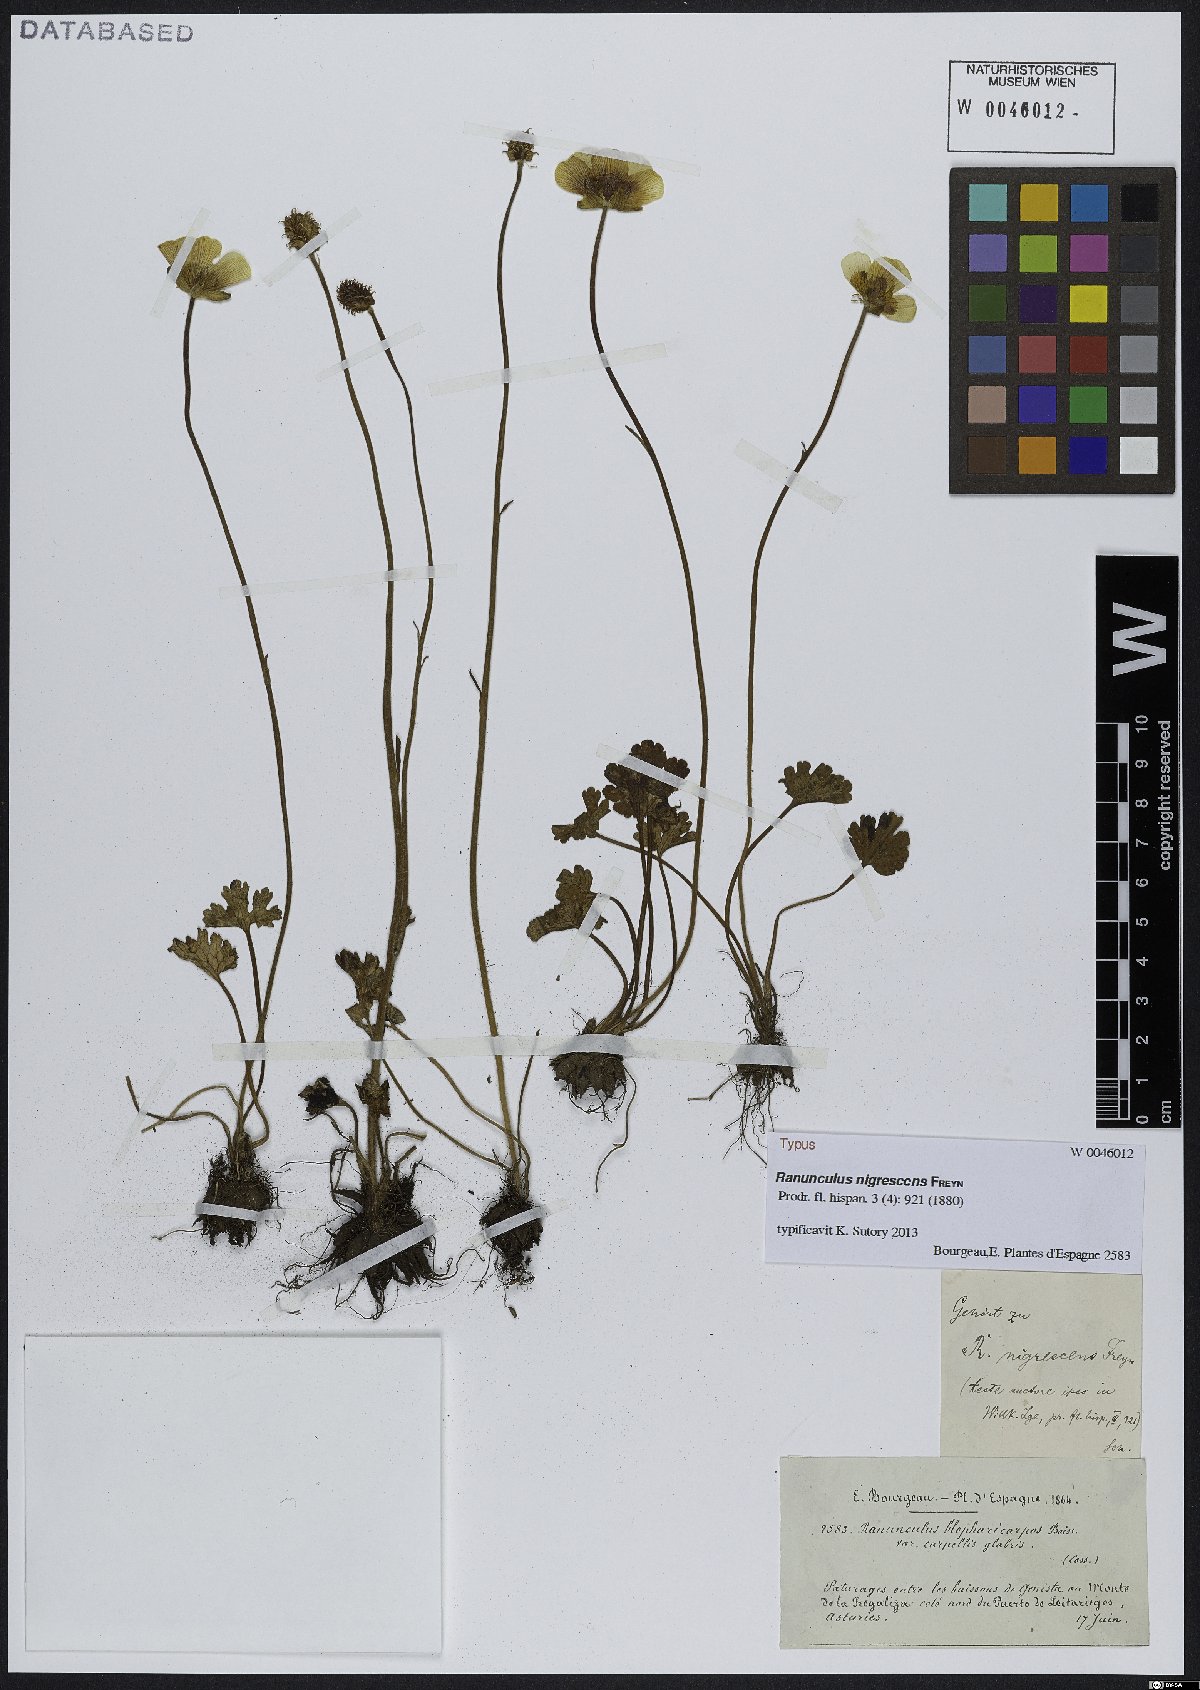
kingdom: Plantae
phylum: Tracheophyta
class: Magnoliopsida
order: Ranunculales
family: Ranunculaceae
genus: Ranunculus
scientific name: Ranunculus nigrescens
